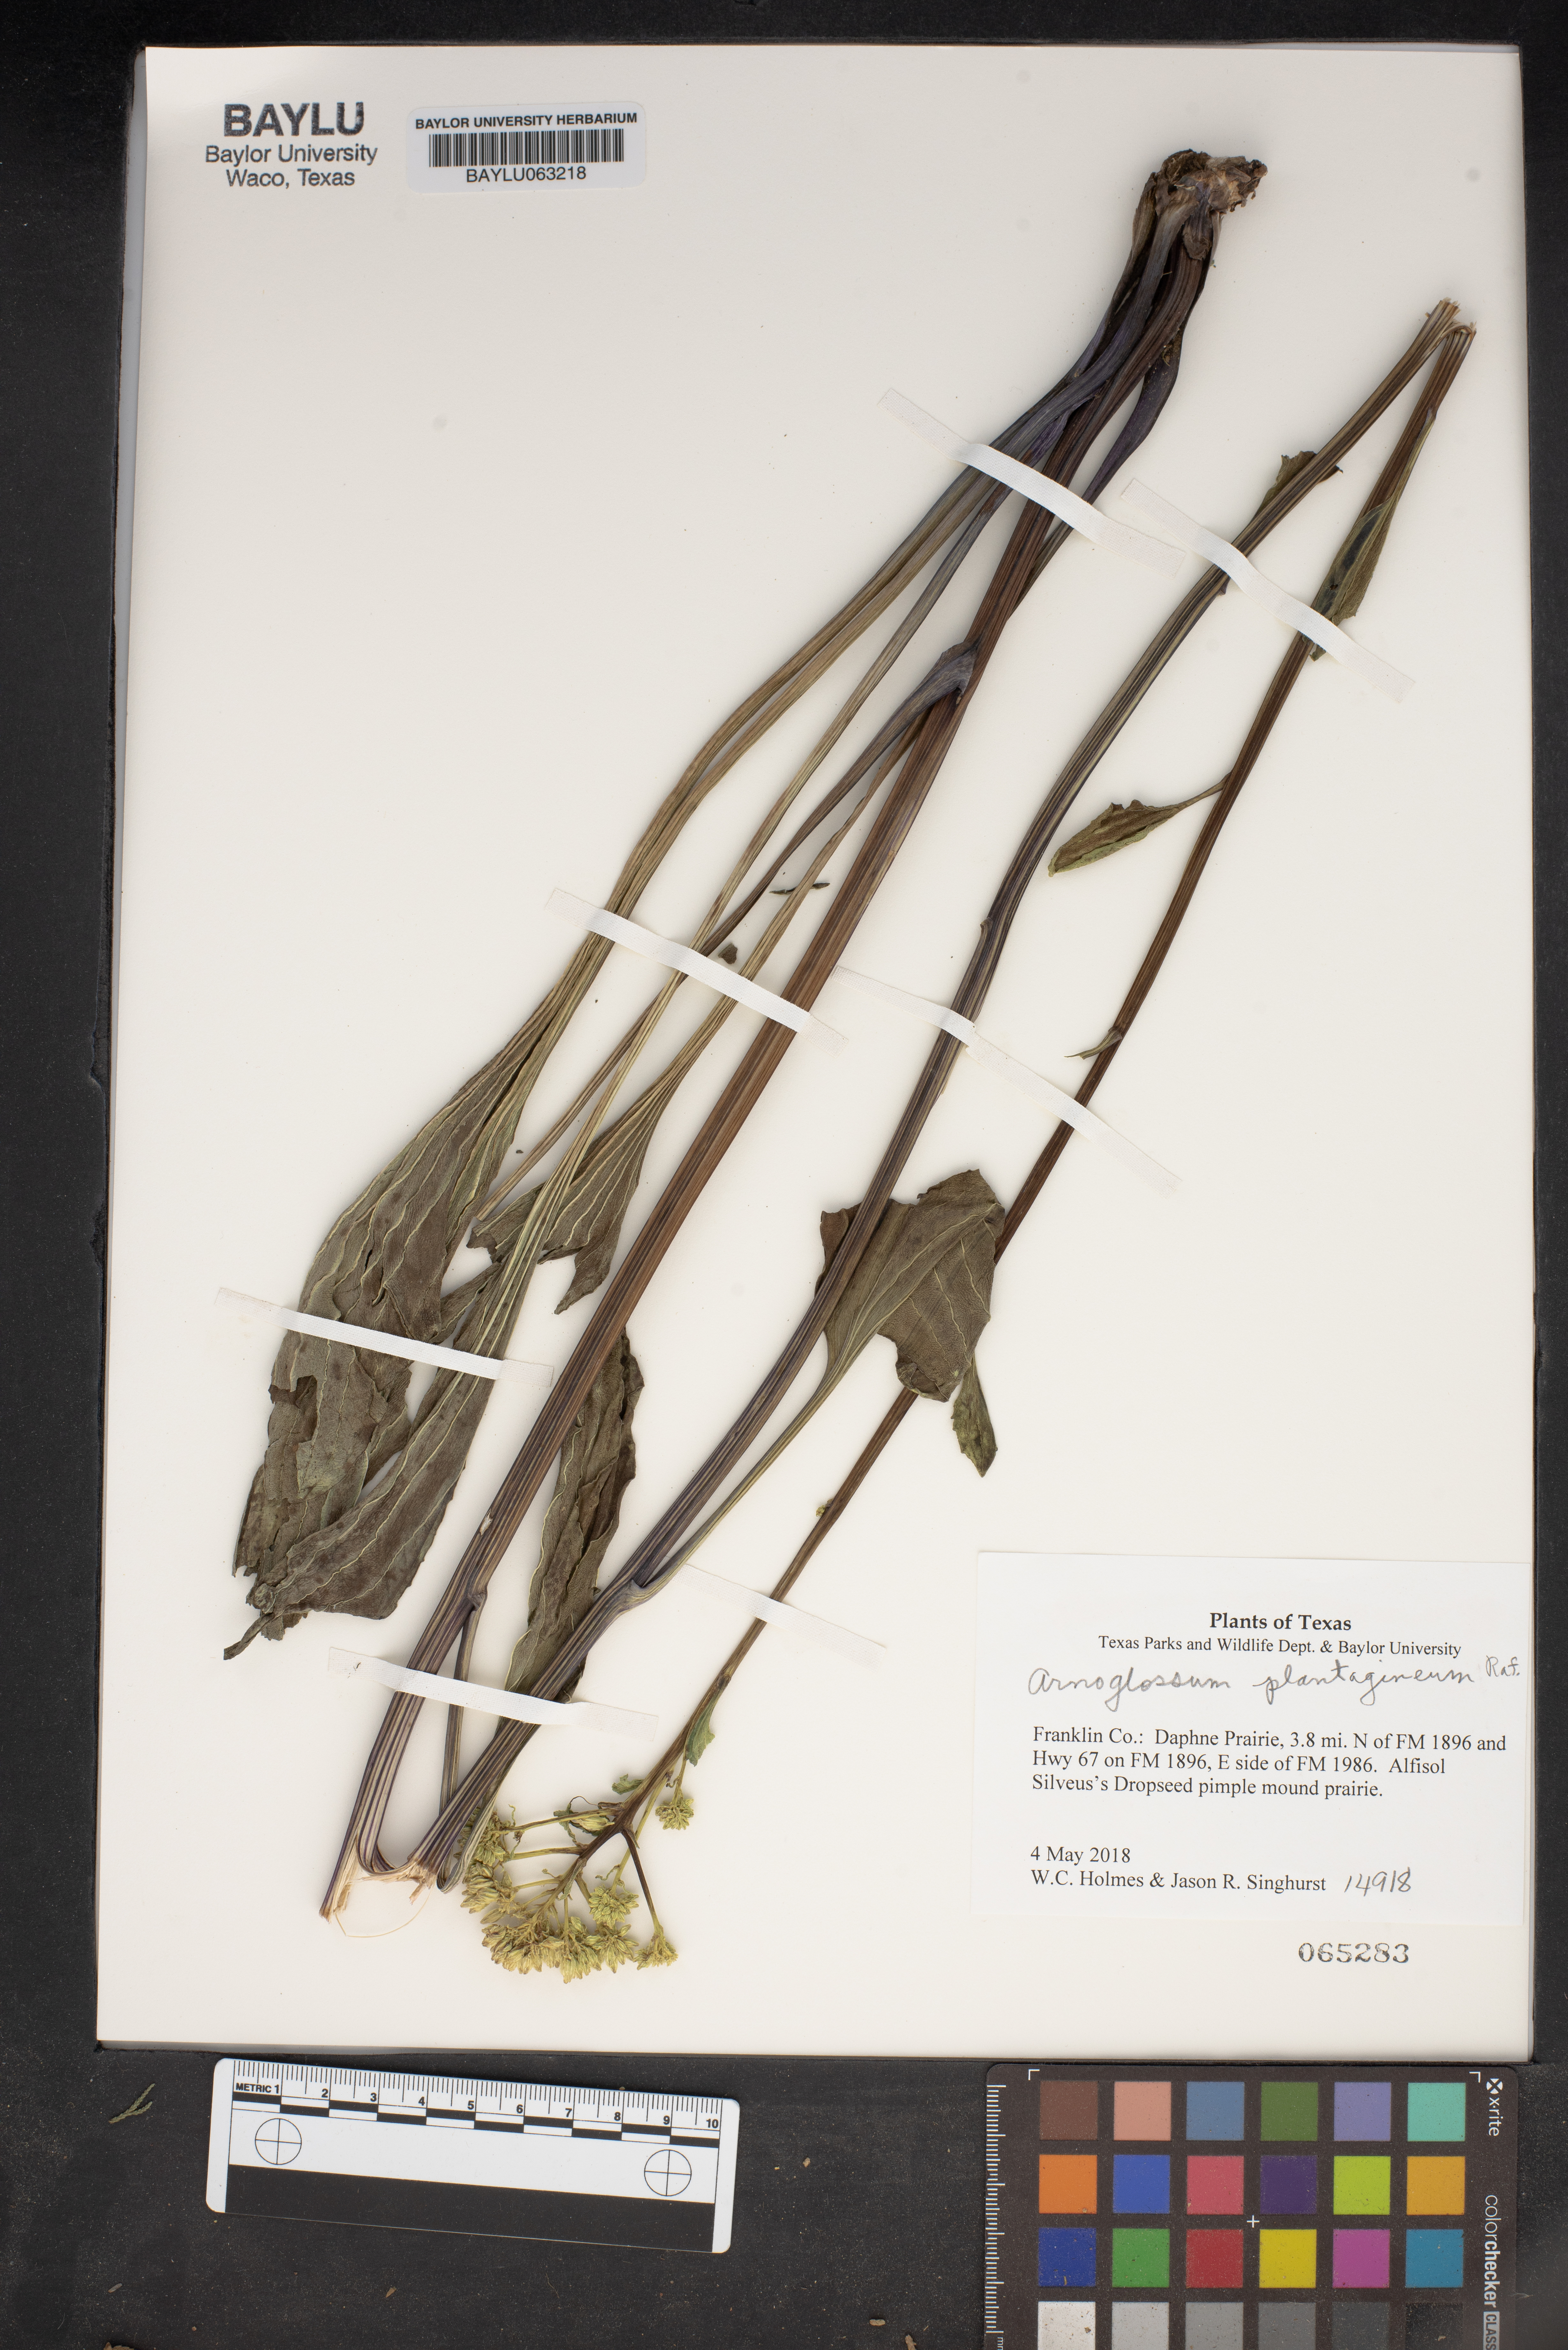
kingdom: Plantae
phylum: Tracheophyta
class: Magnoliopsida
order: Asterales
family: Asteraceae
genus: Arnoglossum
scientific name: Arnoglossum plantagineum
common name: Groove-stemmed indian-plantain
